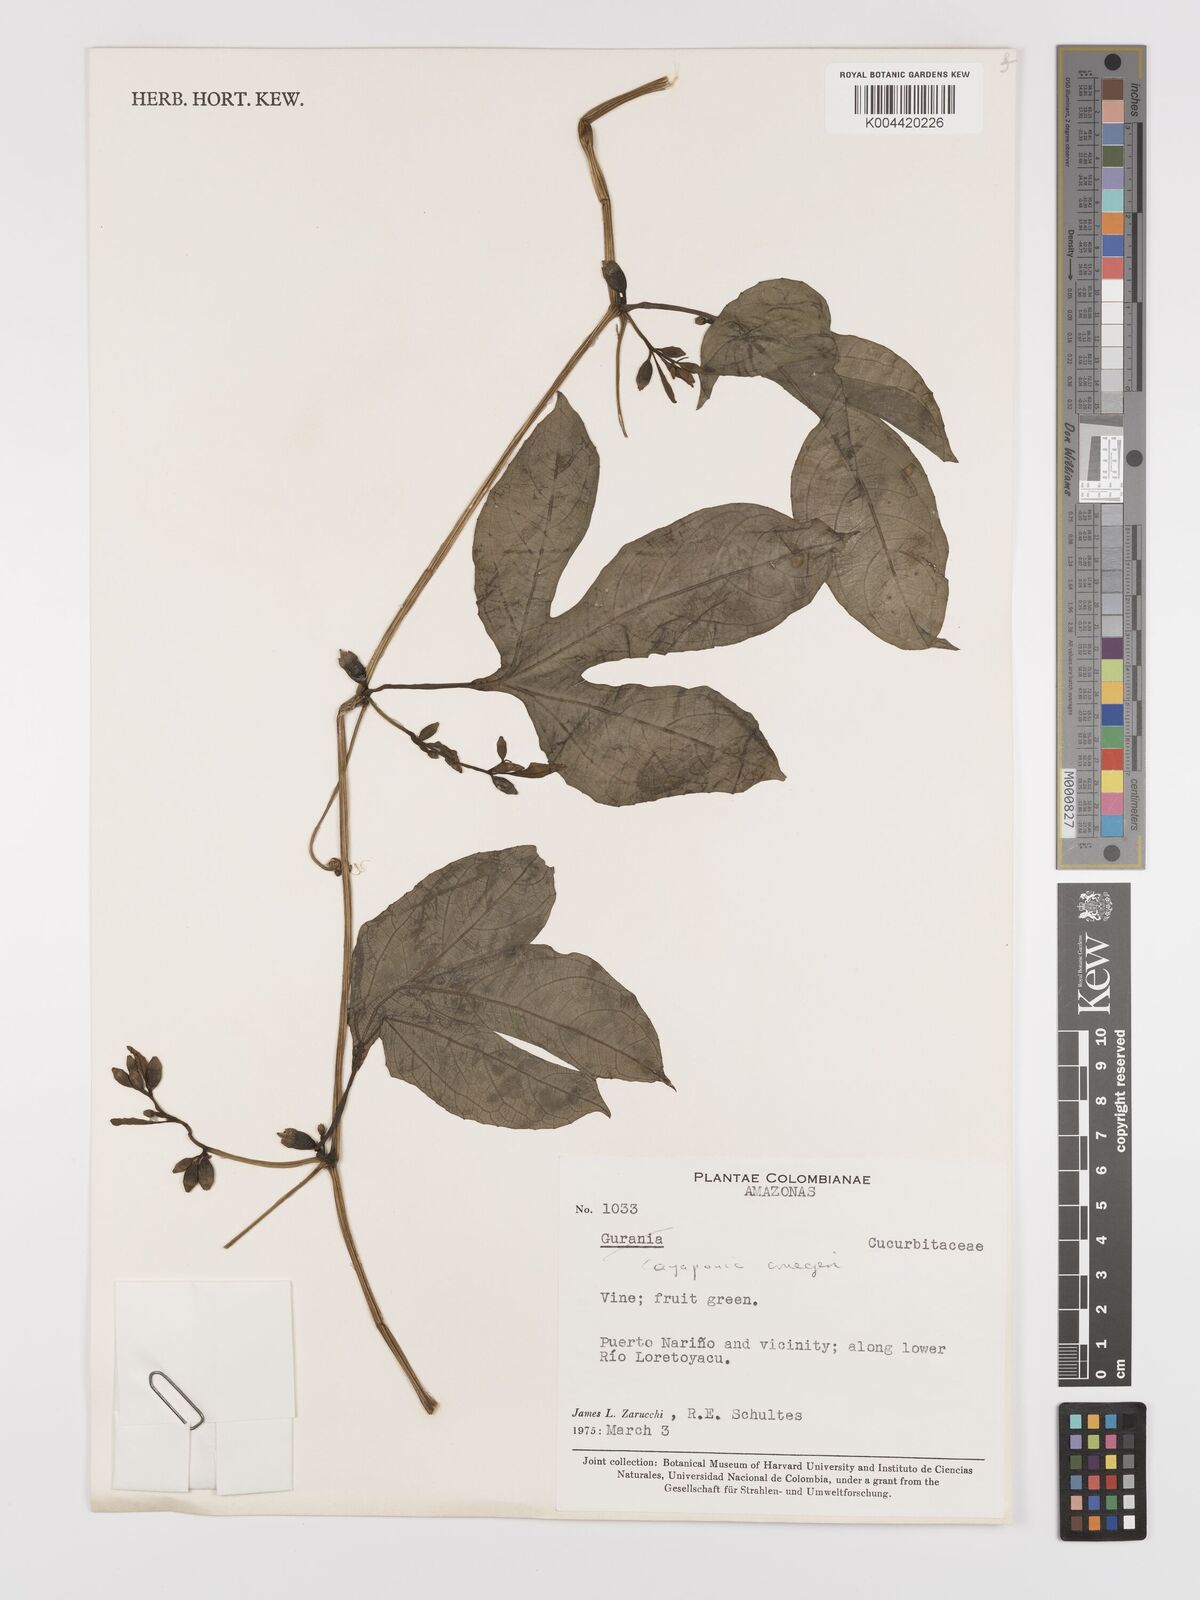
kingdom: Plantae
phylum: Tracheophyta
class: Magnoliopsida
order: Cucurbitales
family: Cucurbitaceae
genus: Cayaponia
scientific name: Cayaponia cruegeri
